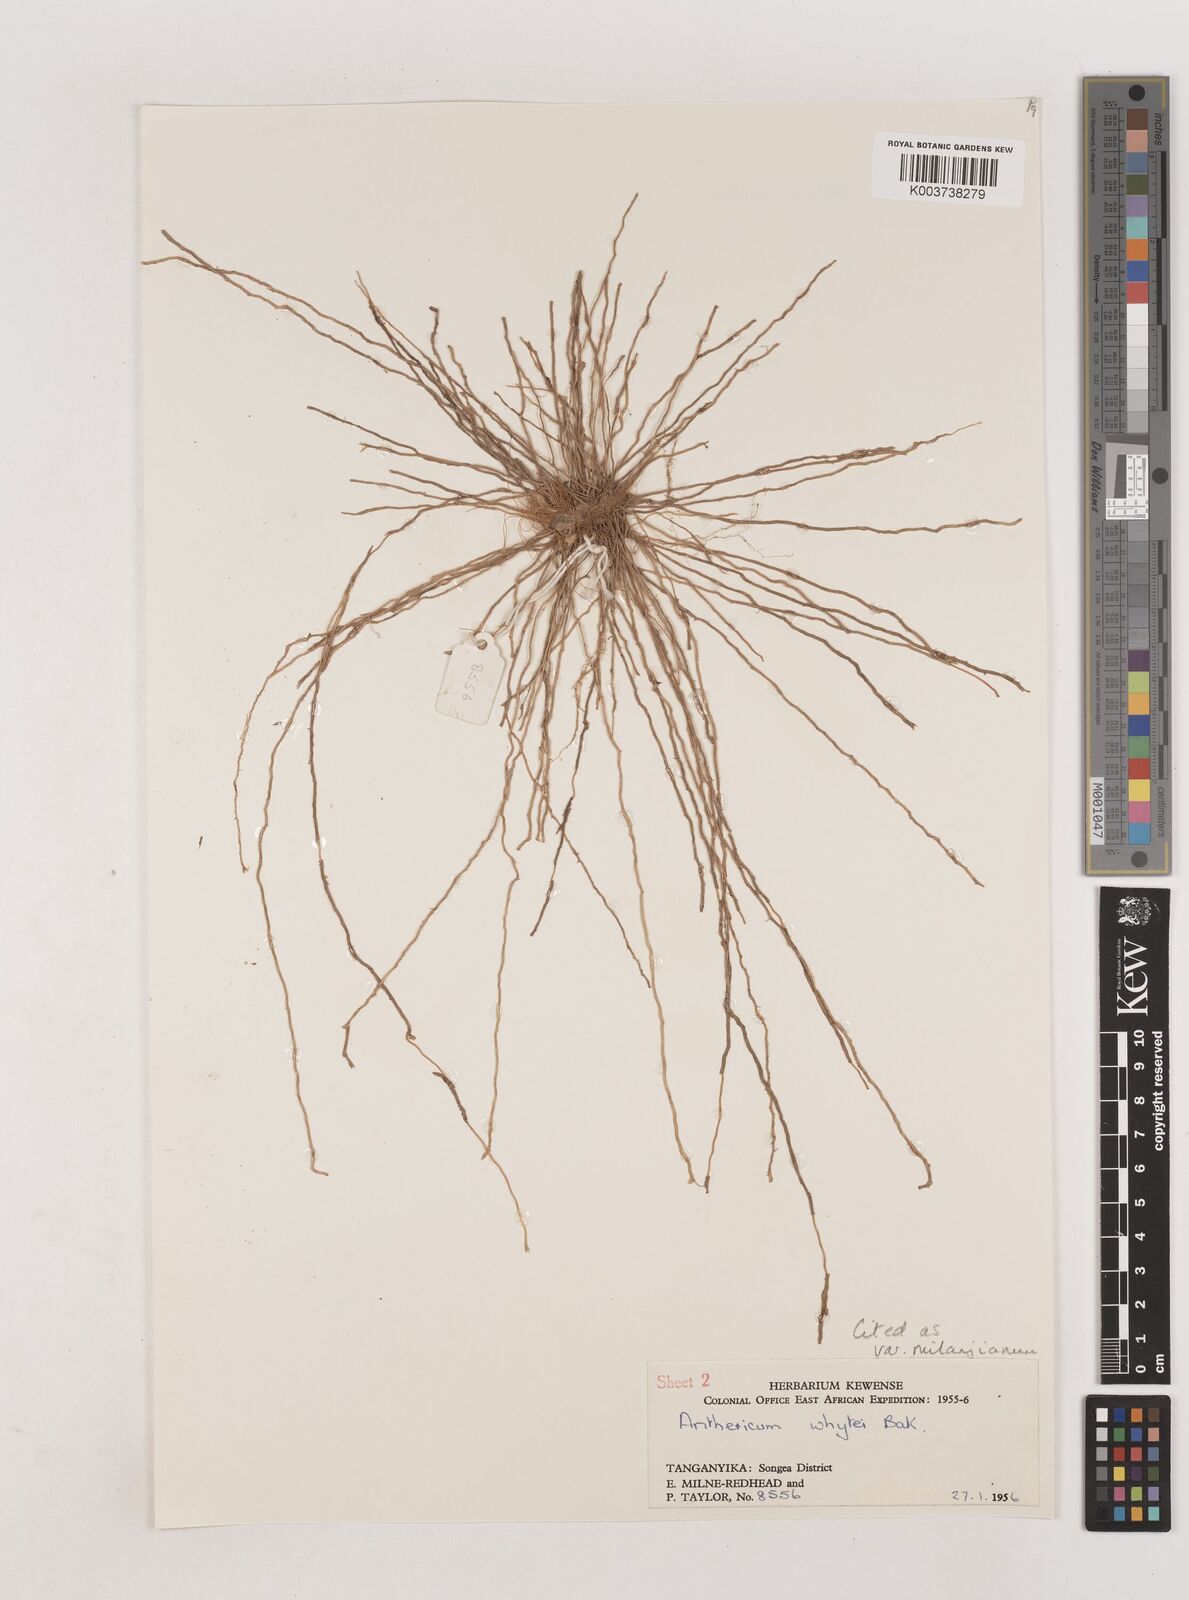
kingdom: Plantae
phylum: Tracheophyta
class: Liliopsida
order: Asparagales
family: Asparagaceae
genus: Chlorophytum
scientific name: Chlorophytum sphacelatum
